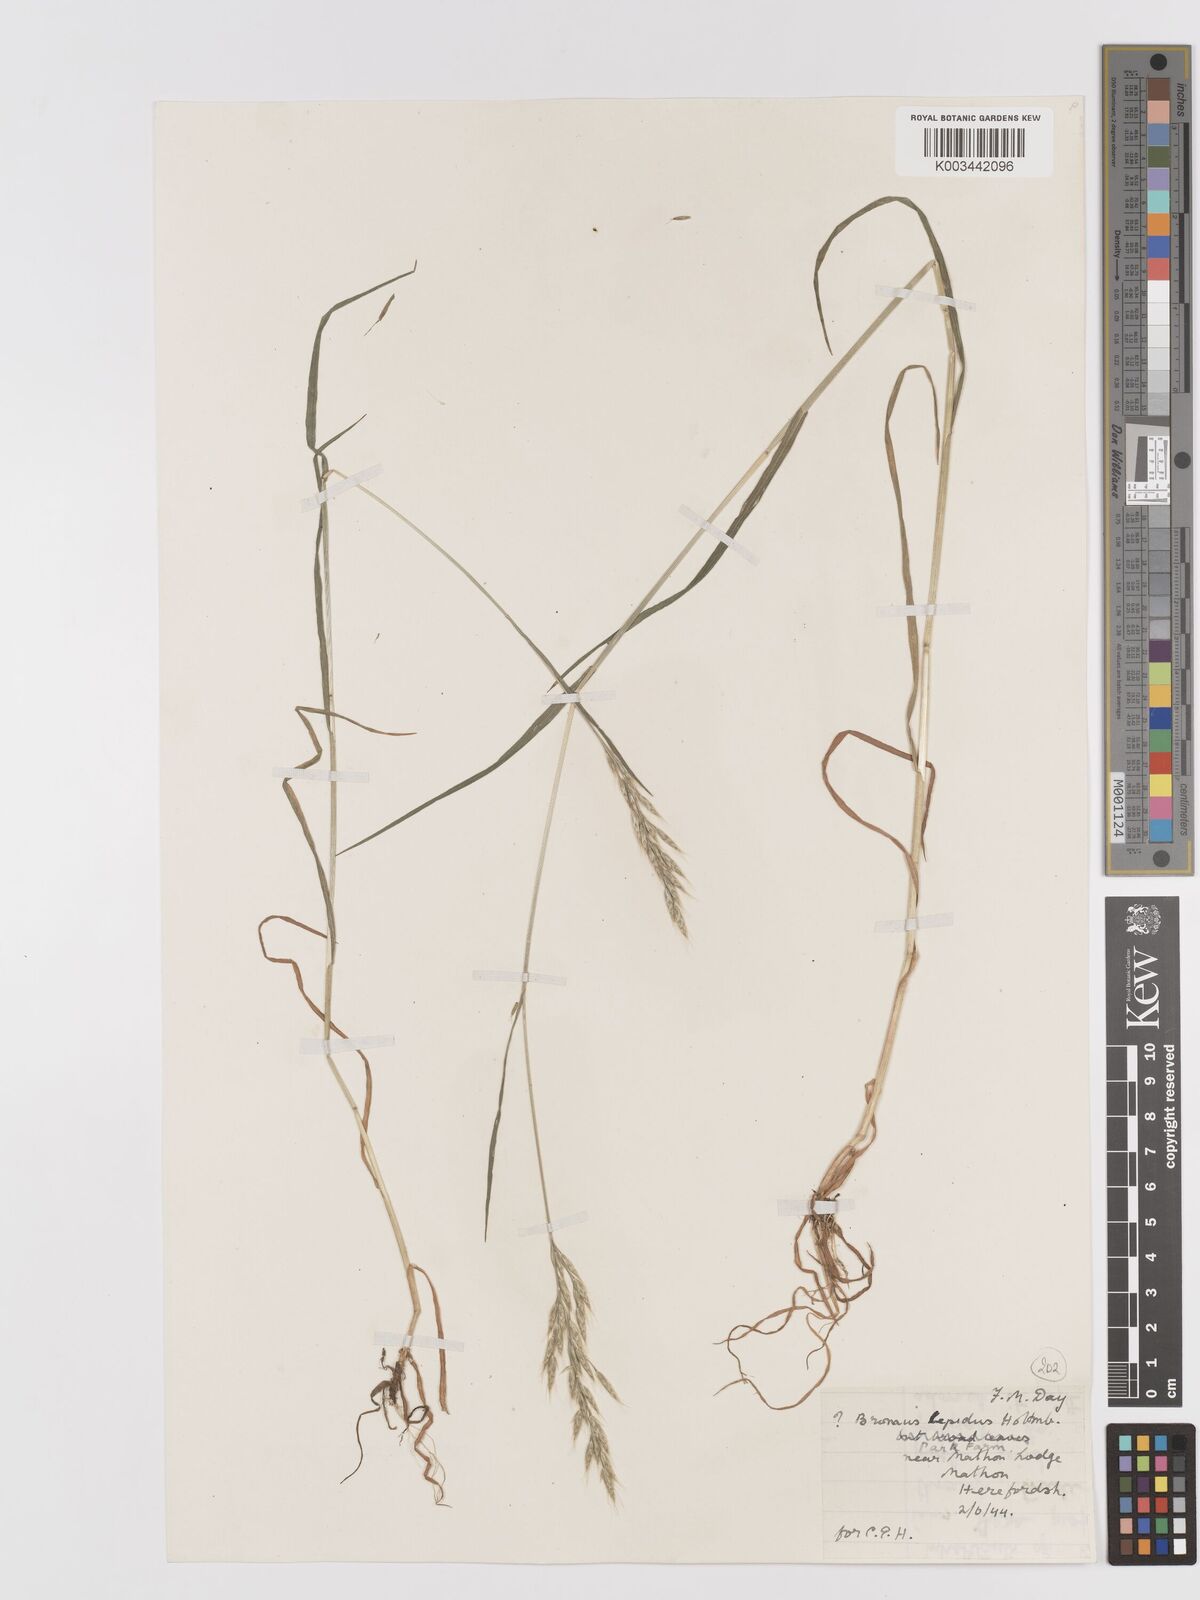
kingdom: Plantae
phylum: Tracheophyta
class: Liliopsida
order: Poales
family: Poaceae
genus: Bromus
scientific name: Bromus lepidus
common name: Slender soft-brome
